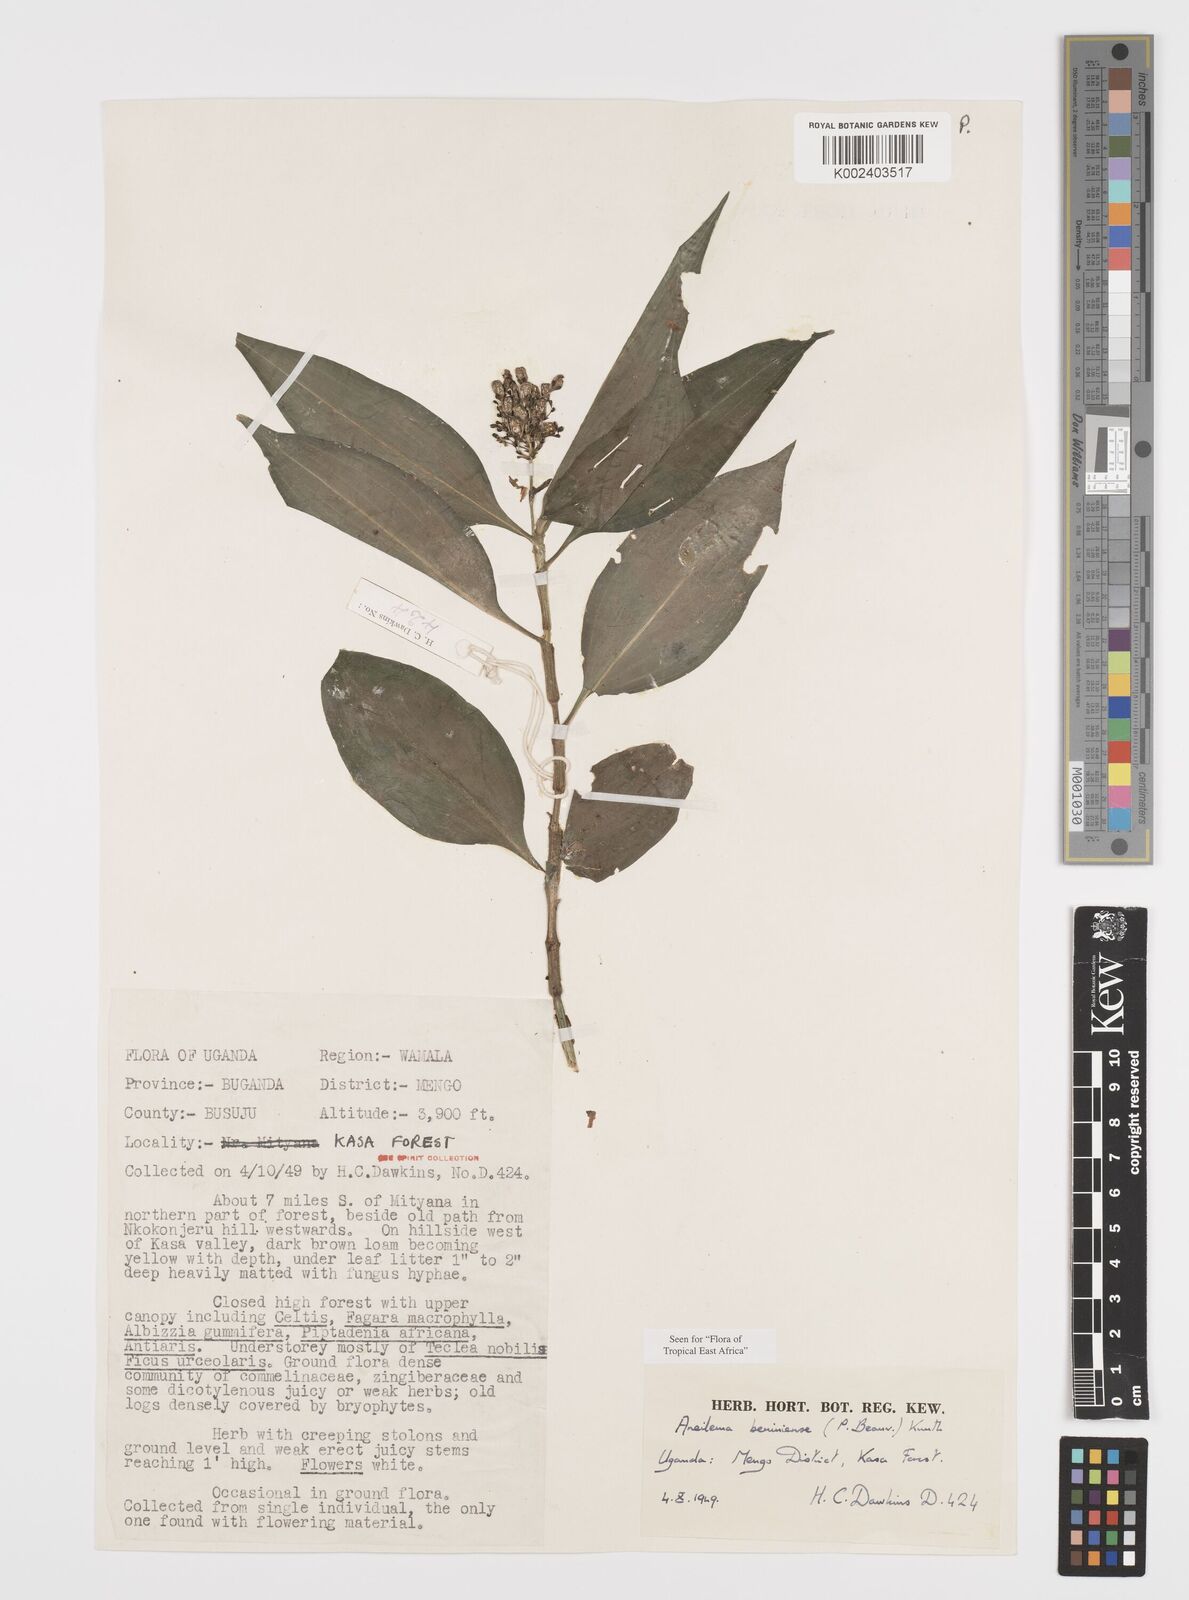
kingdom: Plantae
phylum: Tracheophyta
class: Liliopsida
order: Commelinales
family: Commelinaceae
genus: Aneilema
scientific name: Aneilema beniniense
